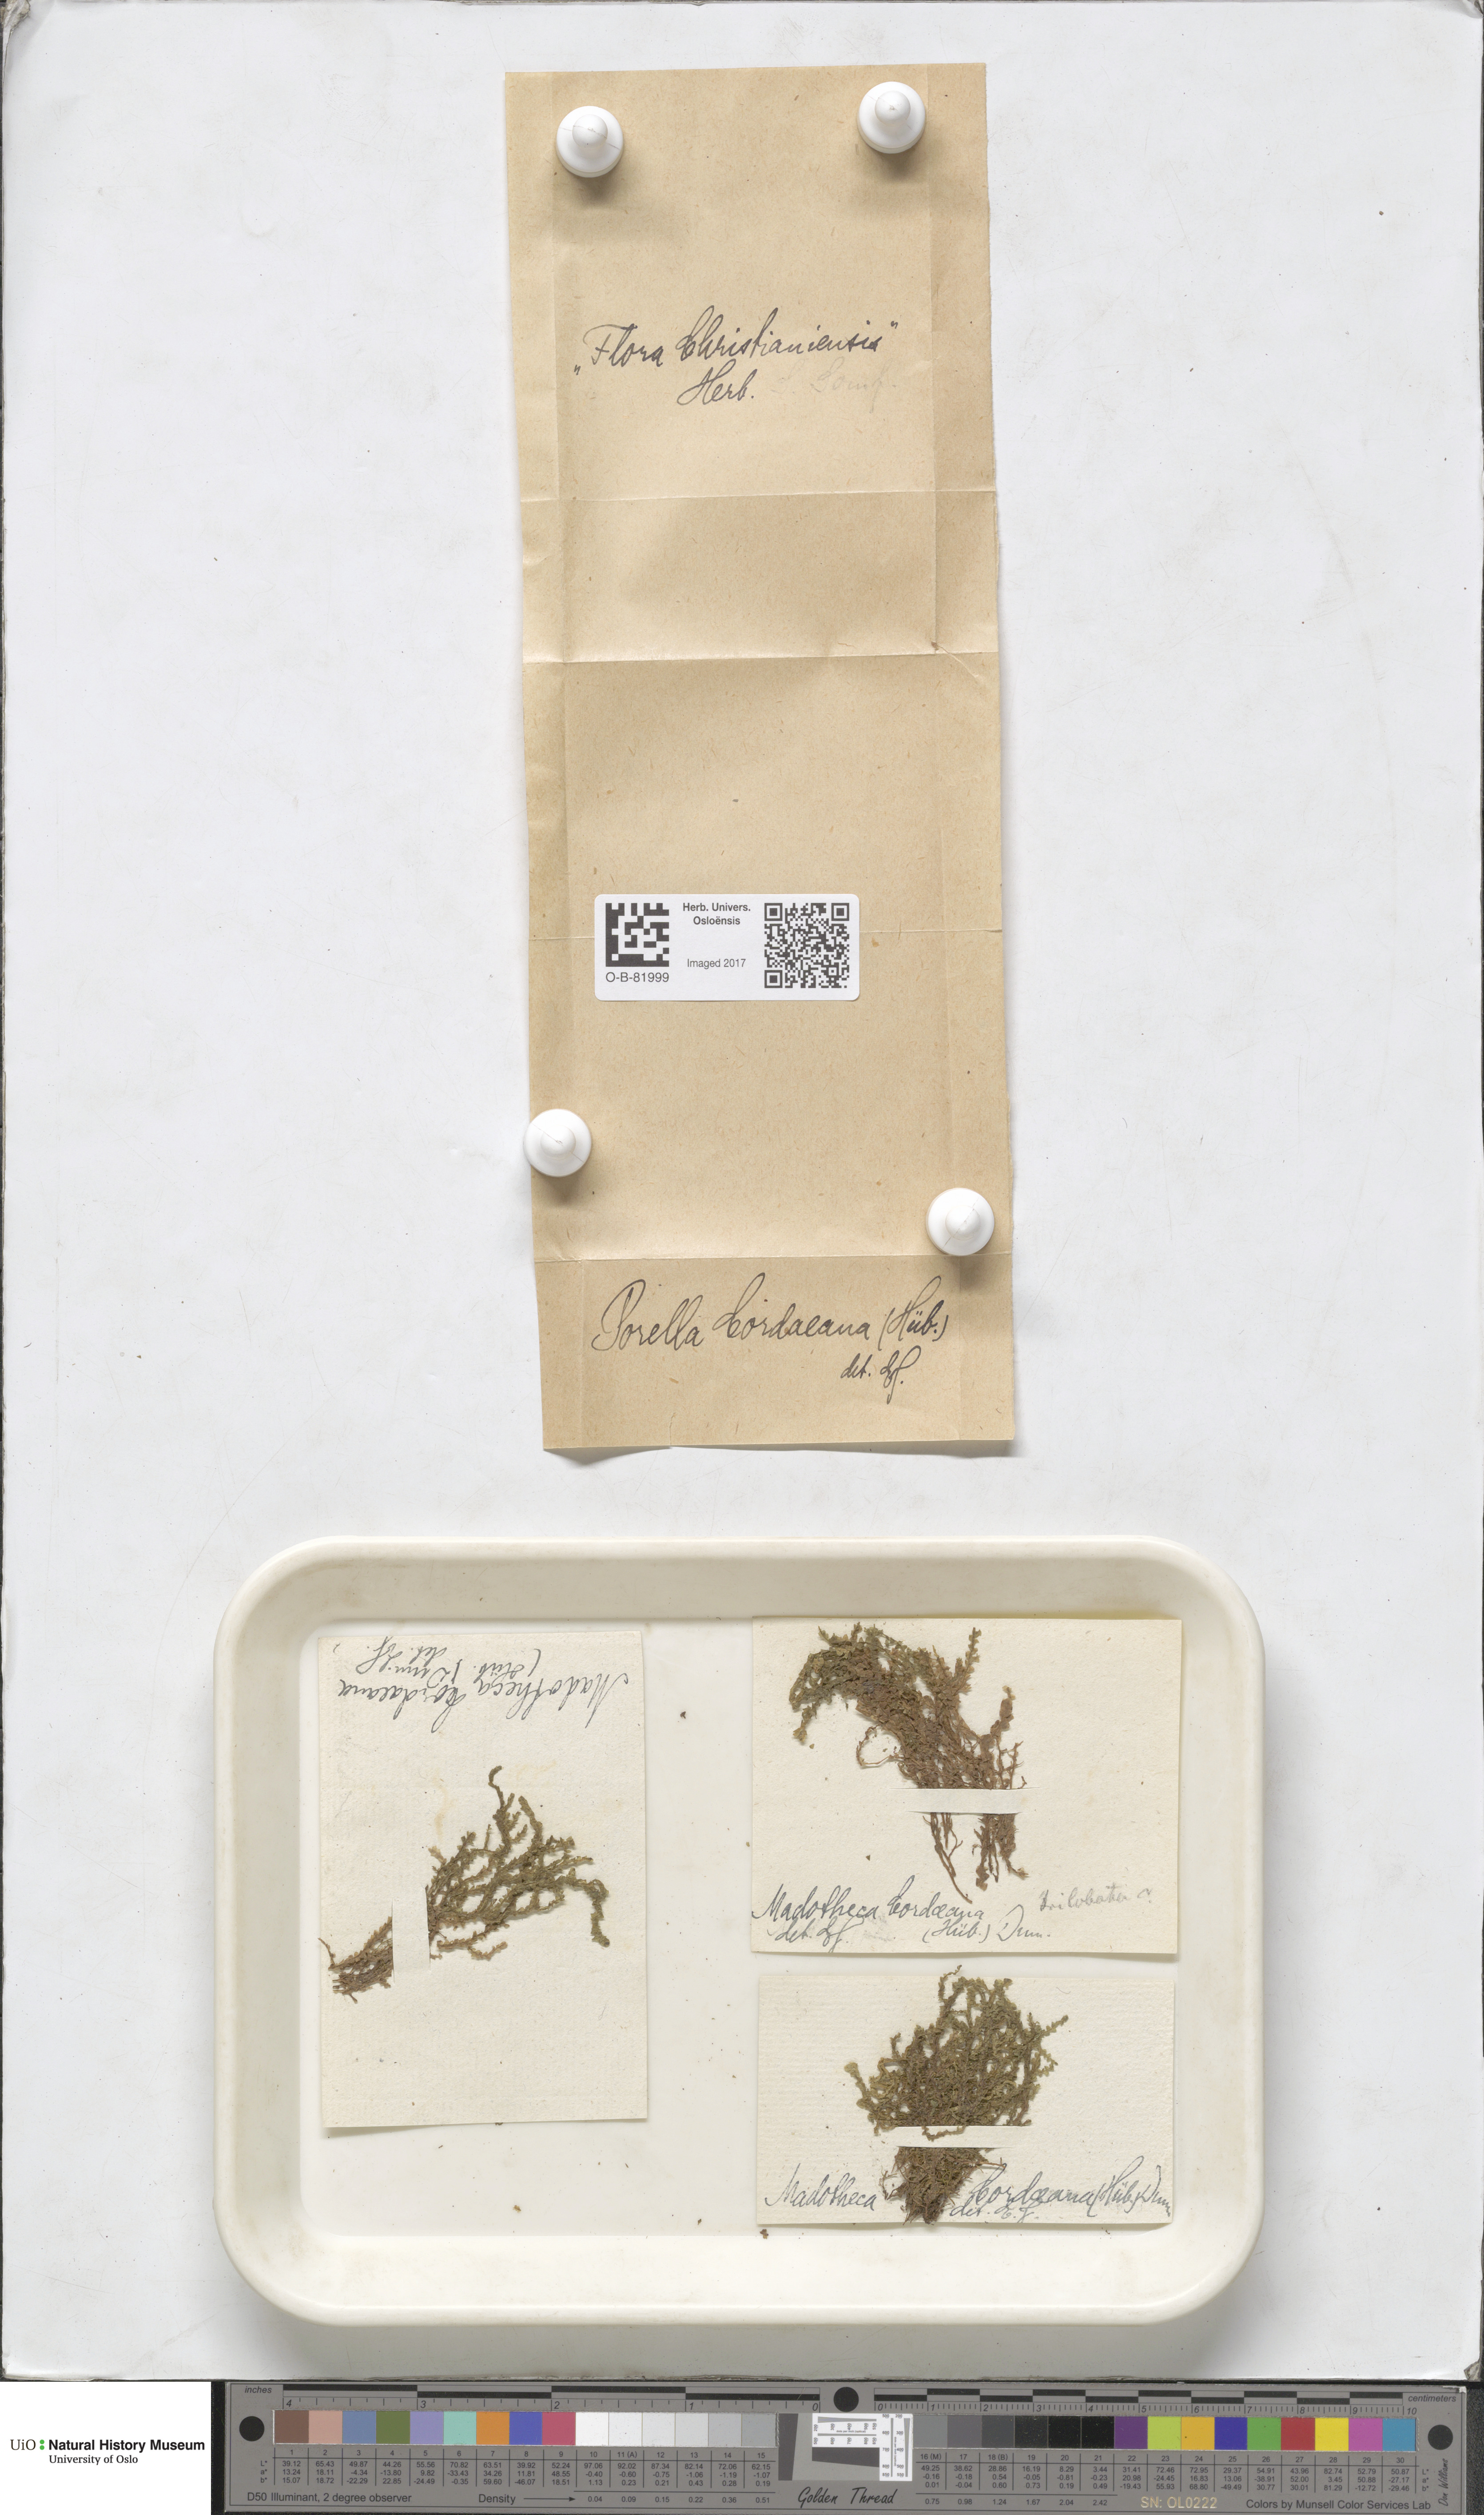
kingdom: Plantae
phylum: Marchantiophyta
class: Jungermanniopsida
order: Porellales
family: Porellaceae
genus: Porella
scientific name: Porella cordaeana
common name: Cliff scalewort
